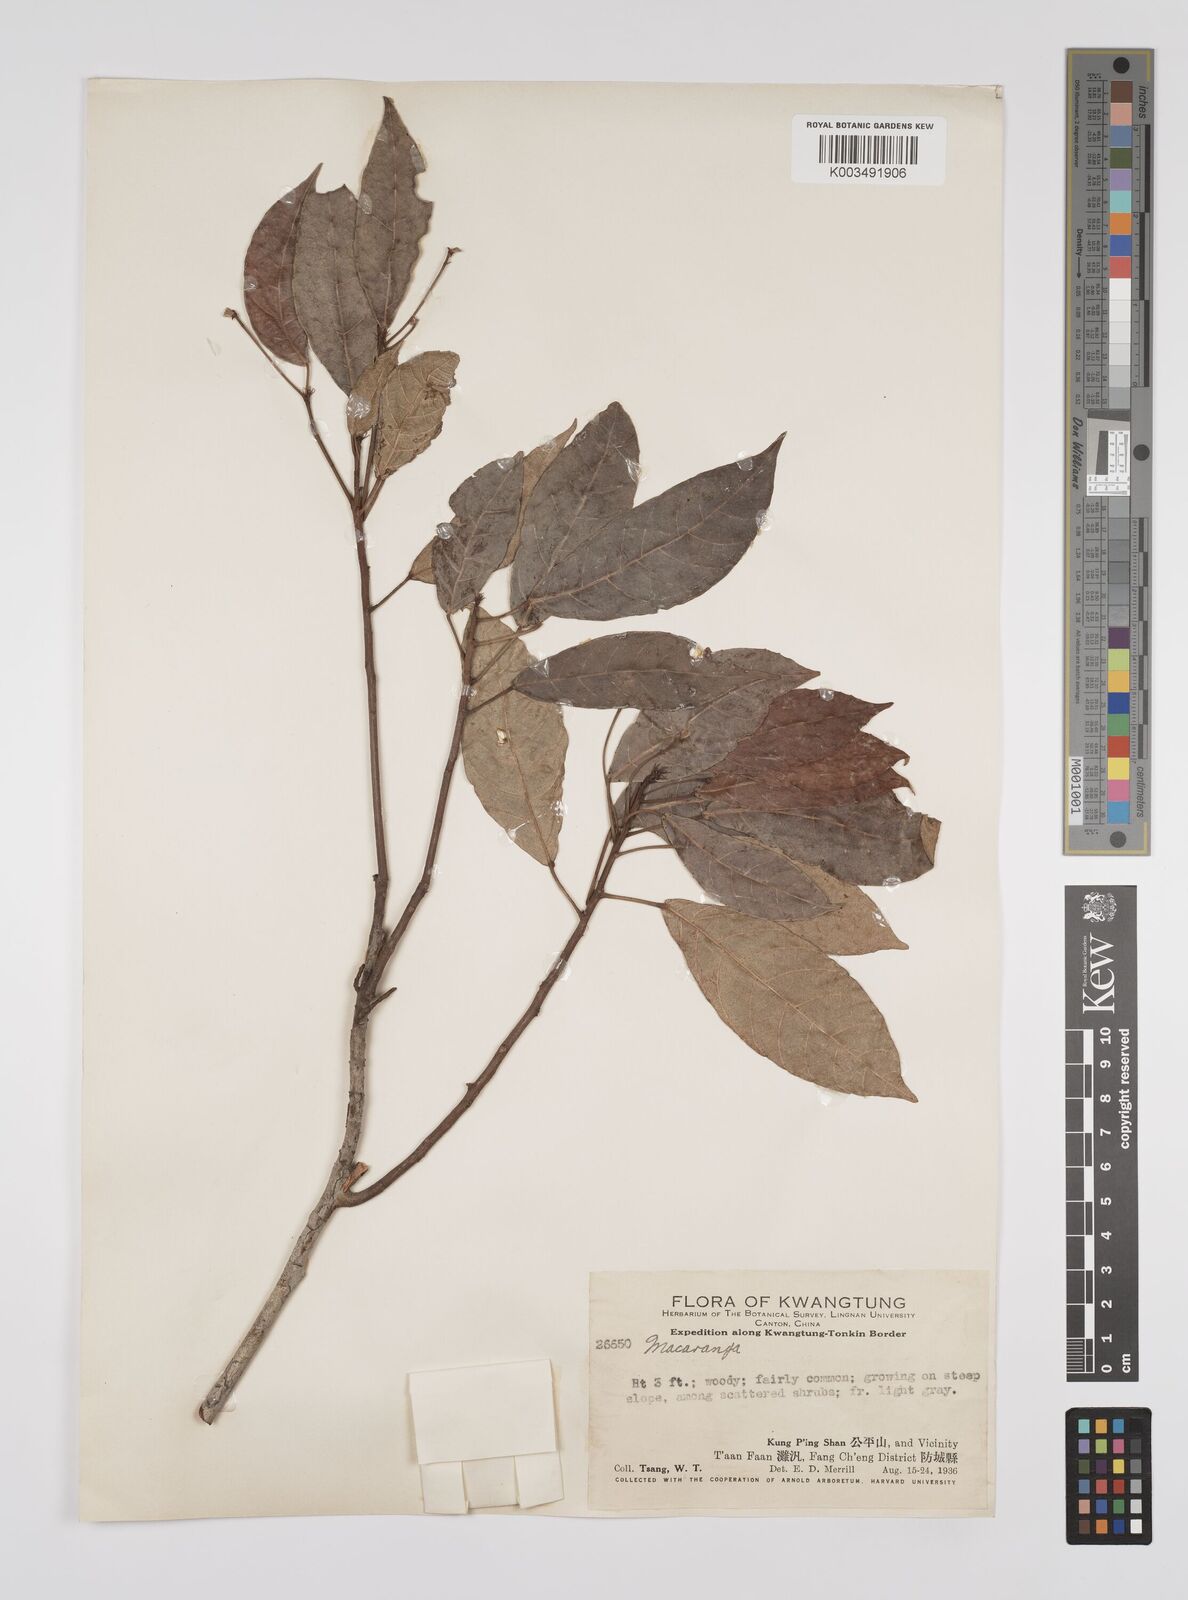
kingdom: Plantae
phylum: Tracheophyta
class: Magnoliopsida
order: Malpighiales
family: Euphorbiaceae
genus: Macaranga
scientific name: Macaranga andamanica
